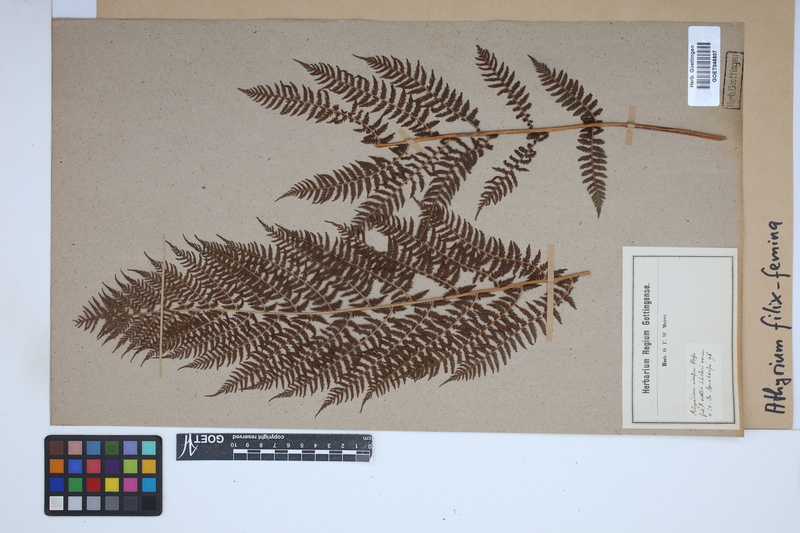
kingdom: Plantae
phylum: Tracheophyta
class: Polypodiopsida
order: Polypodiales
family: Athyriaceae
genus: Athyrium
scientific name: Athyrium filix-femina
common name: Lady fern
